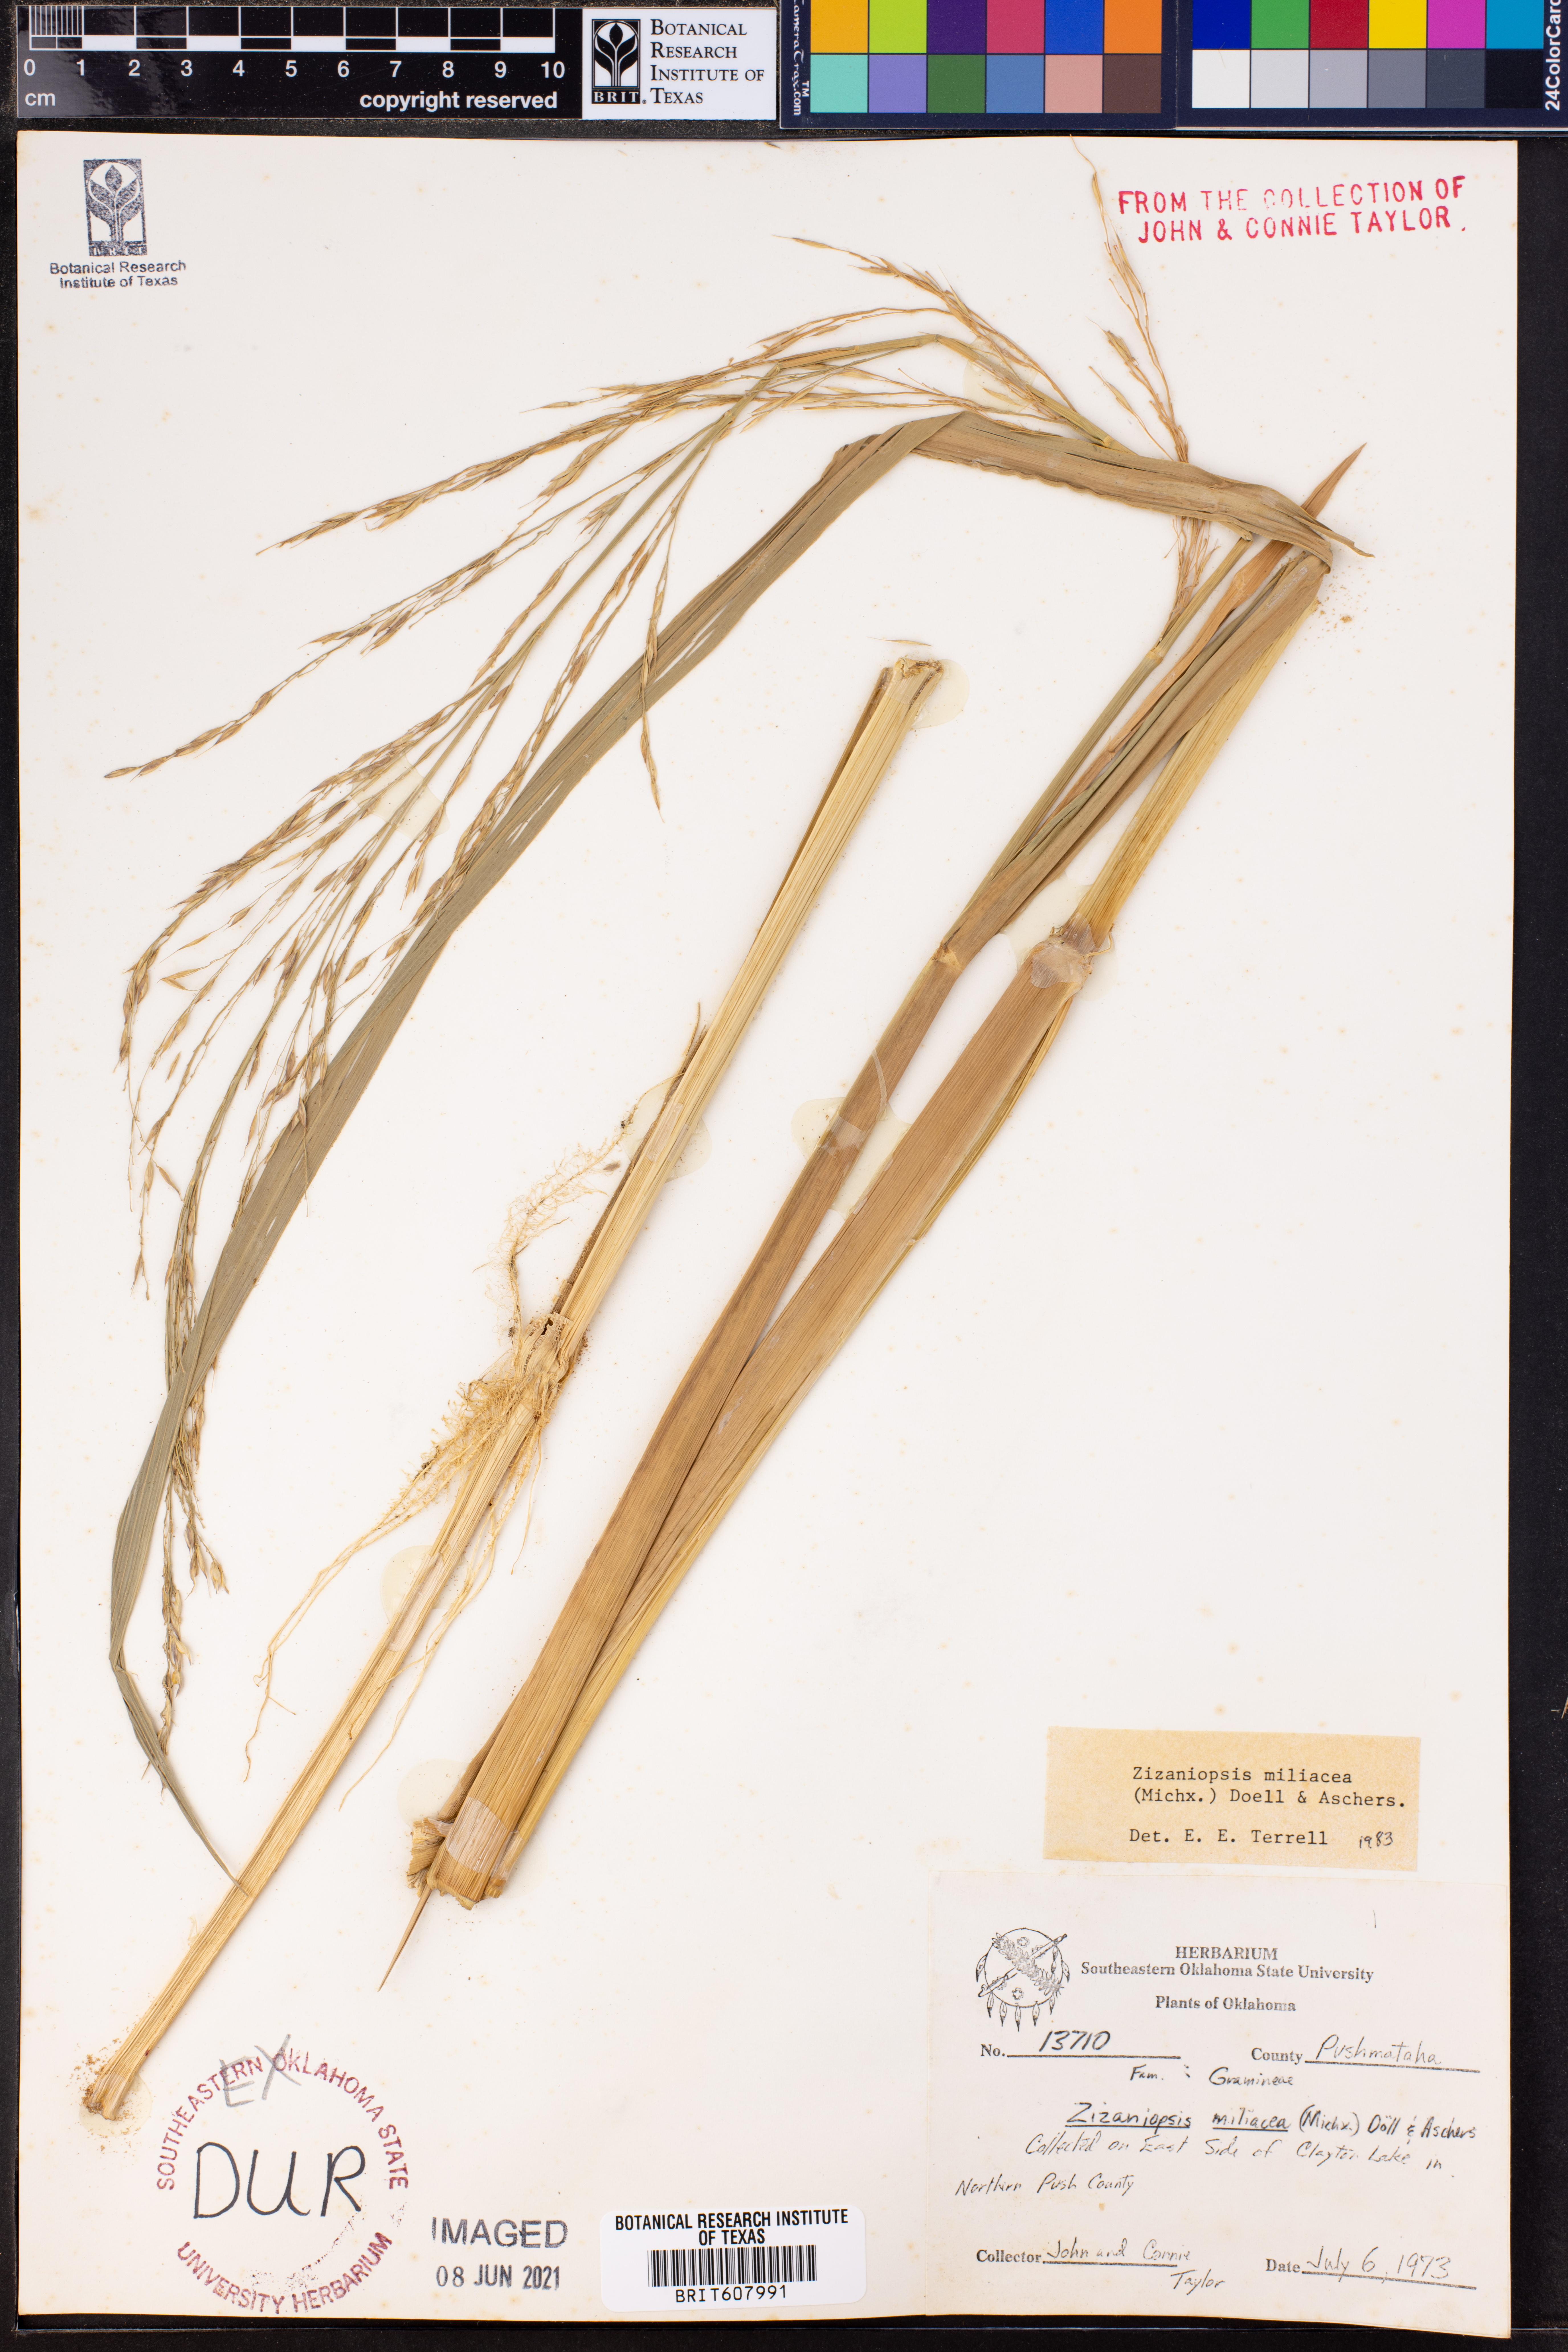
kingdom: Plantae
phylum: Tracheophyta
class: Liliopsida
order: Poales
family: Poaceae
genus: Zizaniopsis
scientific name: Zizaniopsis miliacea
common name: Giant-cutgrass
